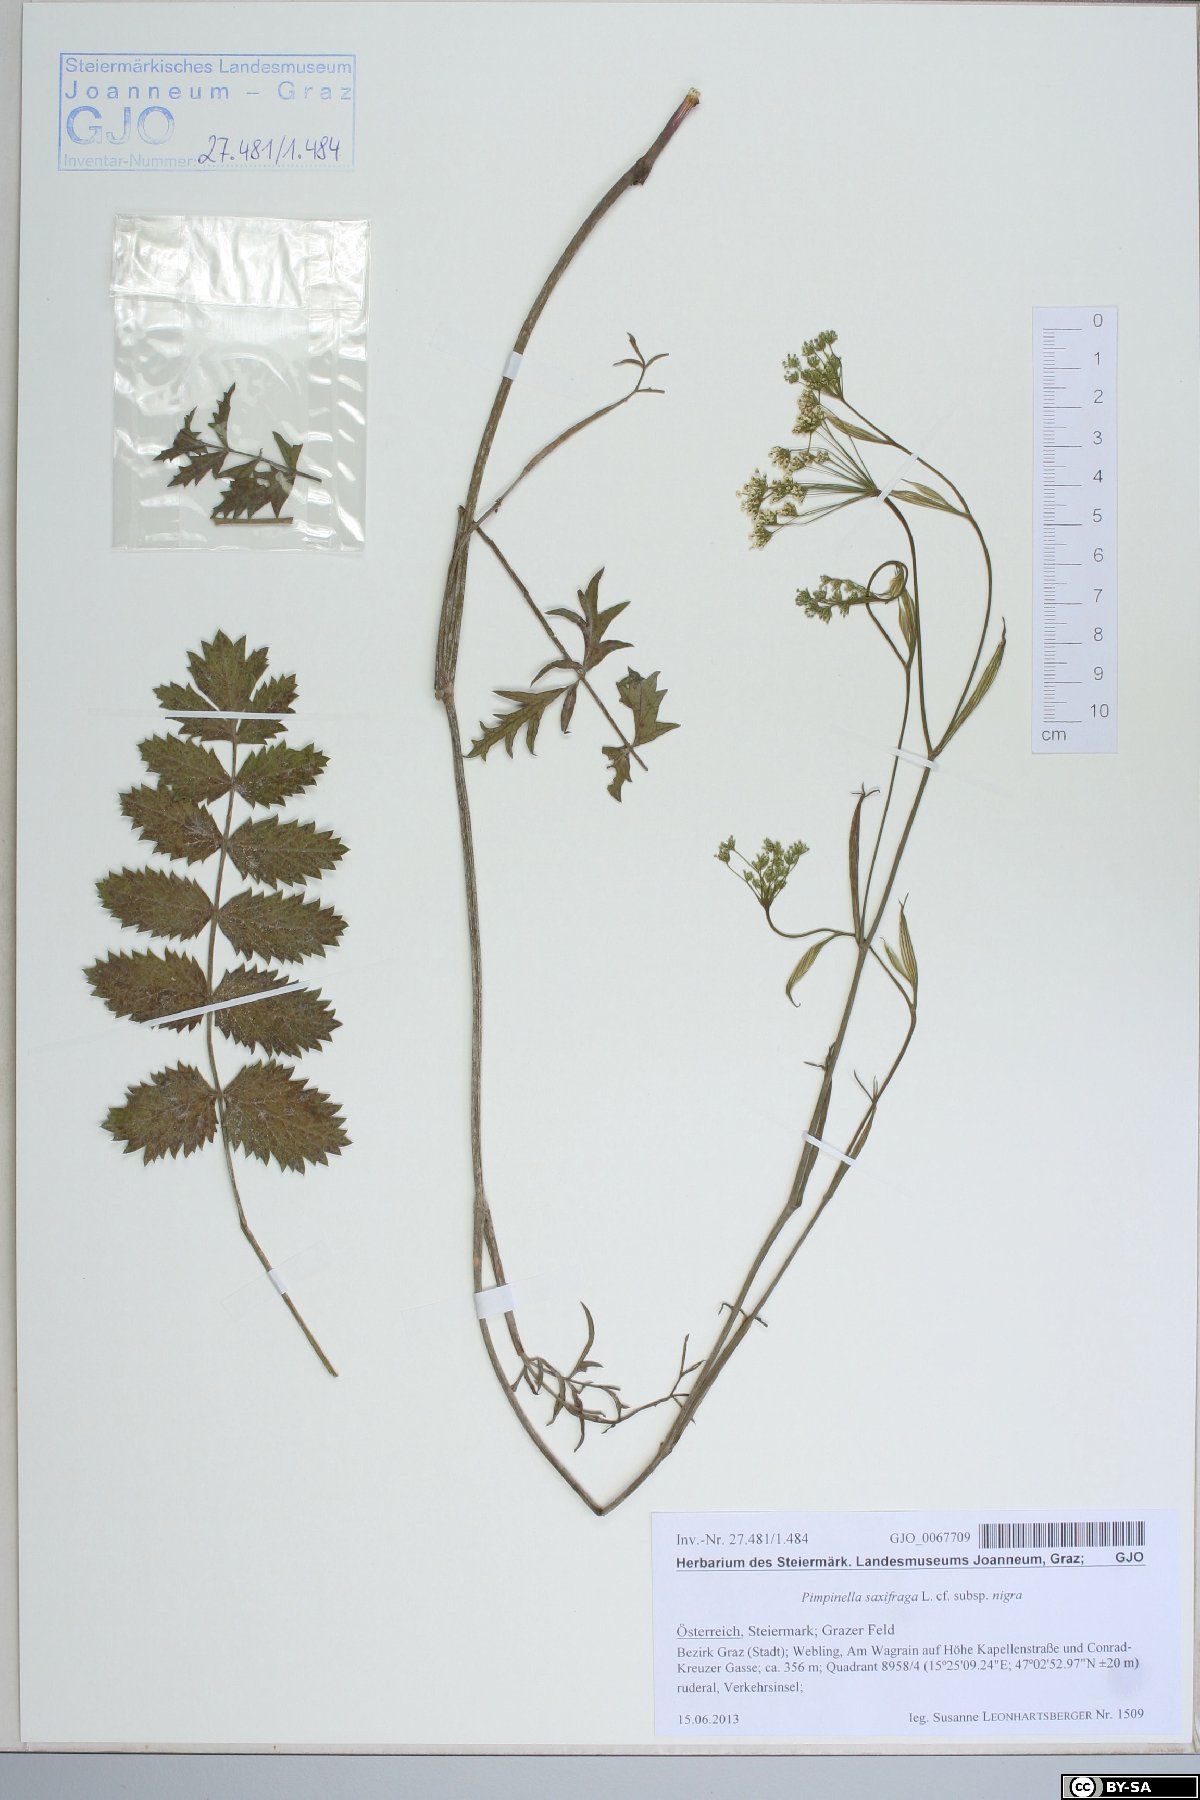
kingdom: Plantae
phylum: Tracheophyta
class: Magnoliopsida
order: Apiales
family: Apiaceae
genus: Pimpinella
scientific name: Pimpinella nigra
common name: Black pimpinella
